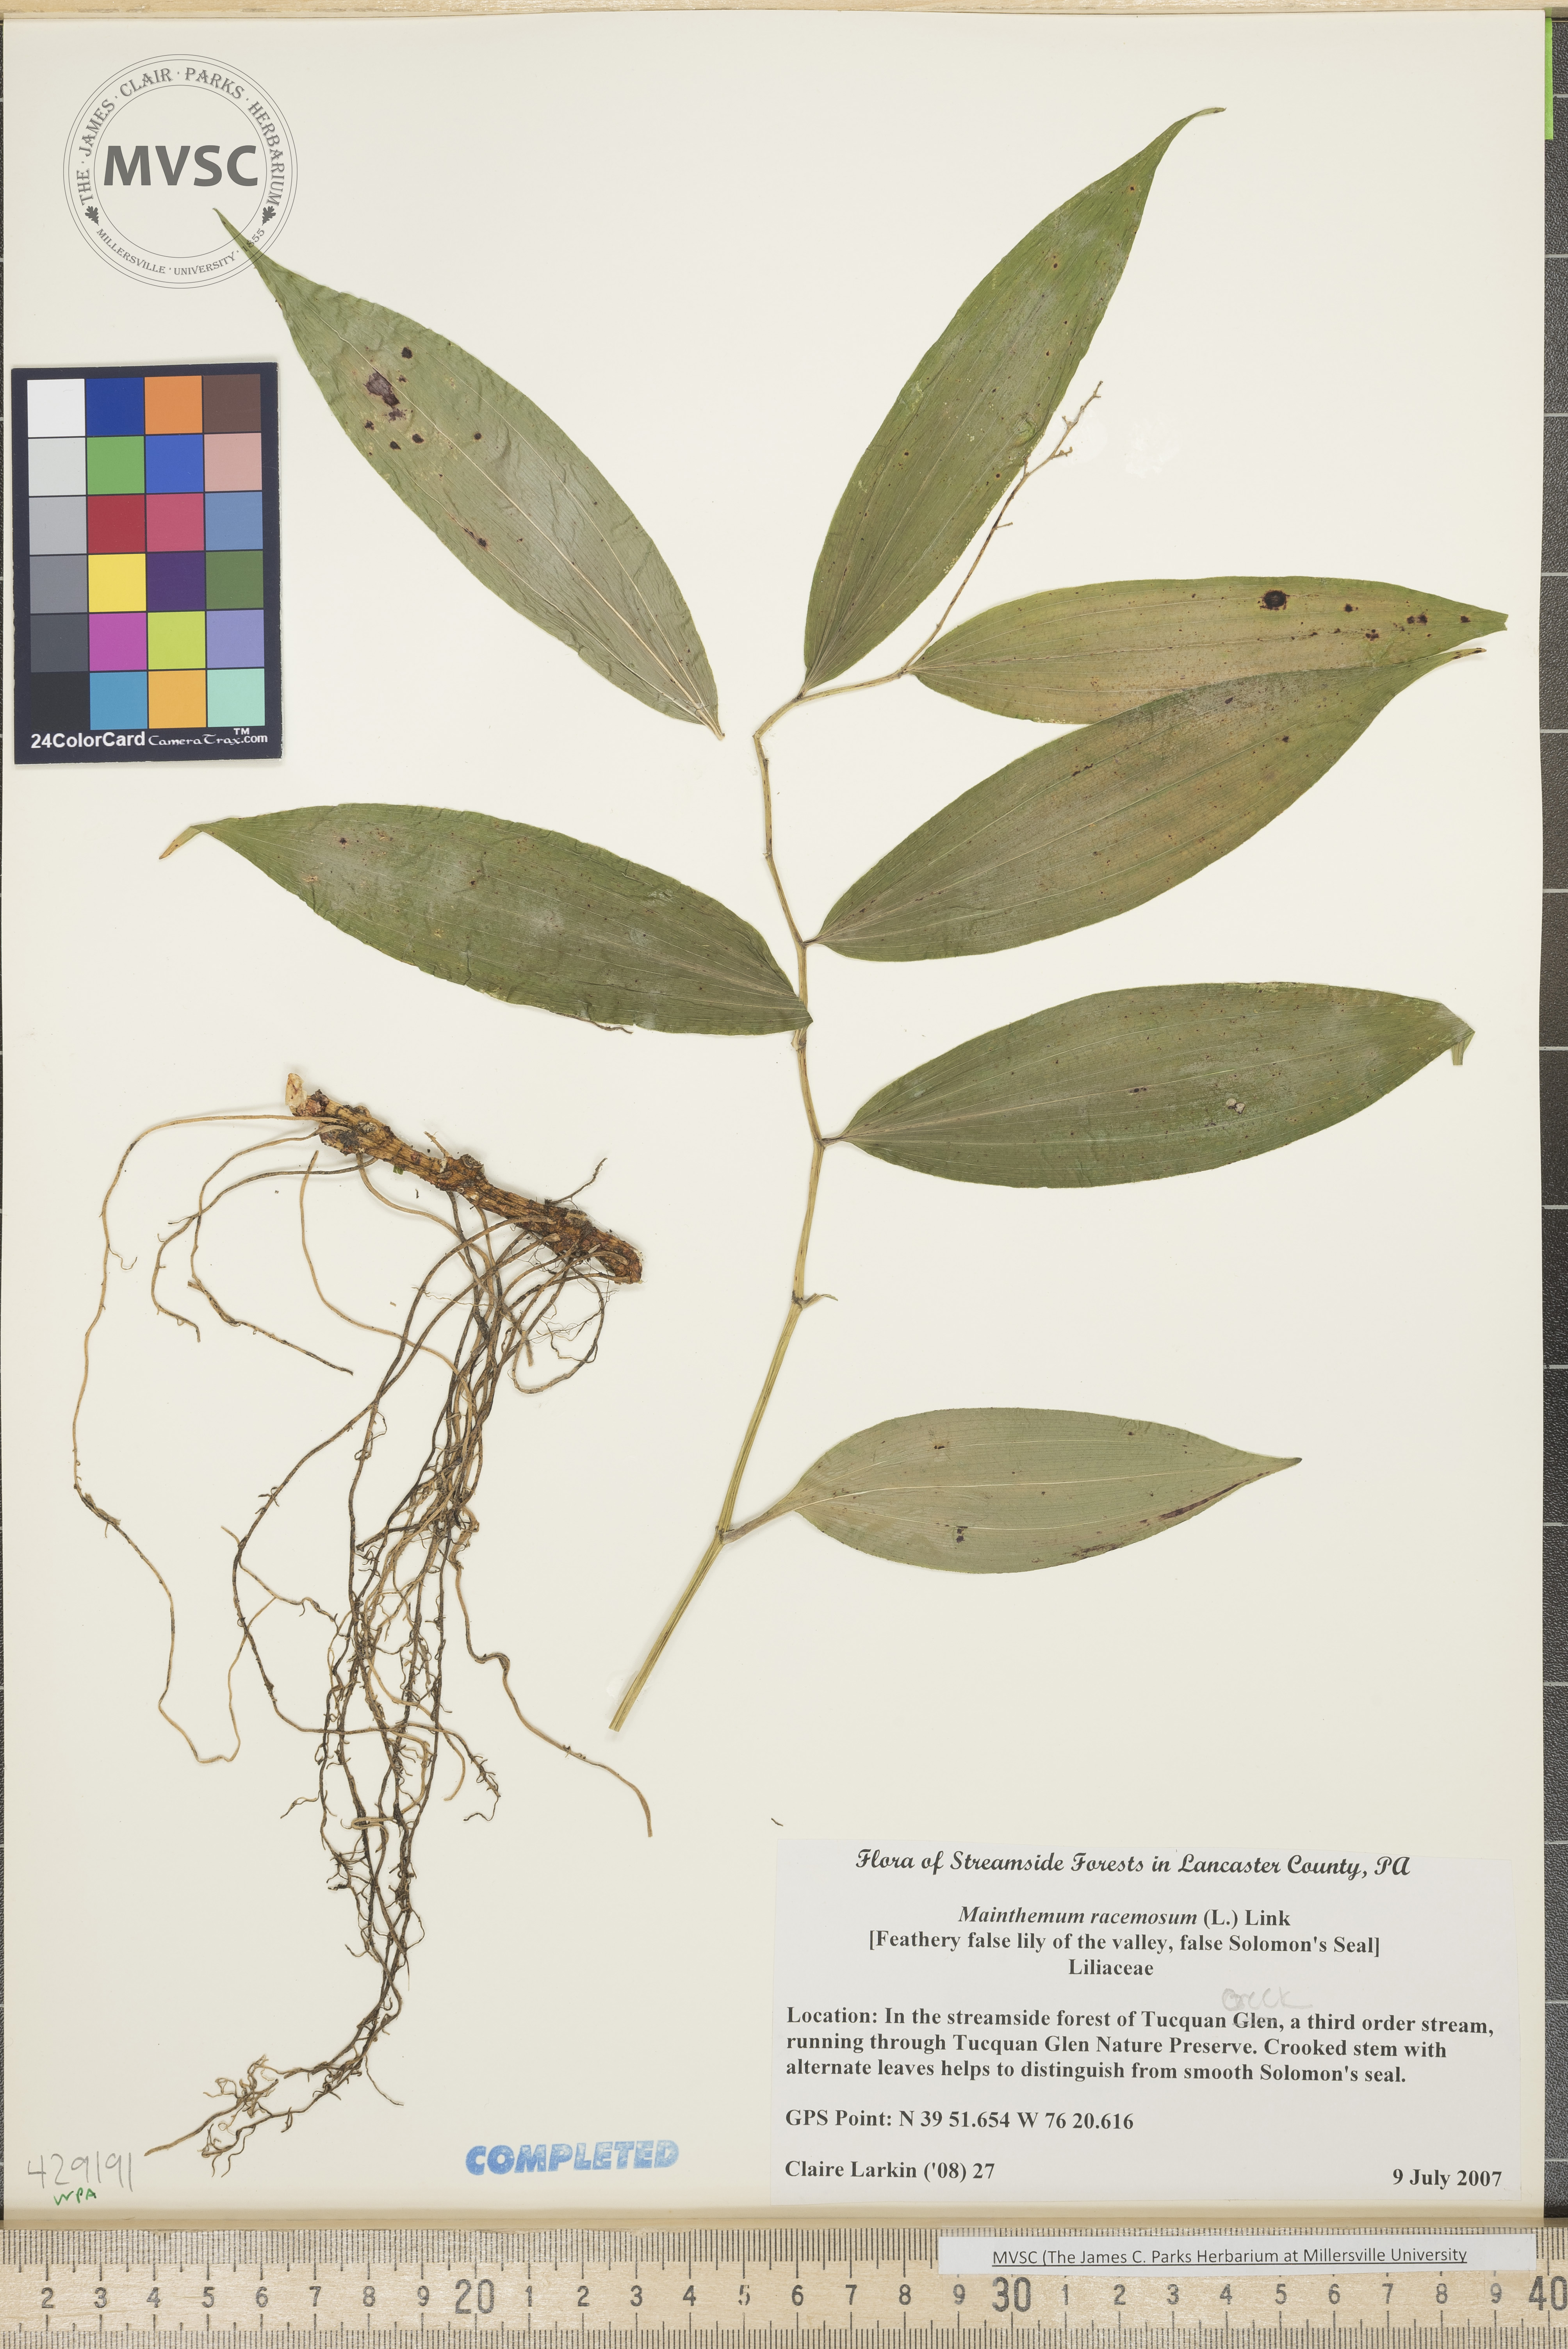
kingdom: Plantae
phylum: Tracheophyta
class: Liliopsida
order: Asparagales
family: Asparagaceae
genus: Maianthemum
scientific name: Maianthemum racemosum
